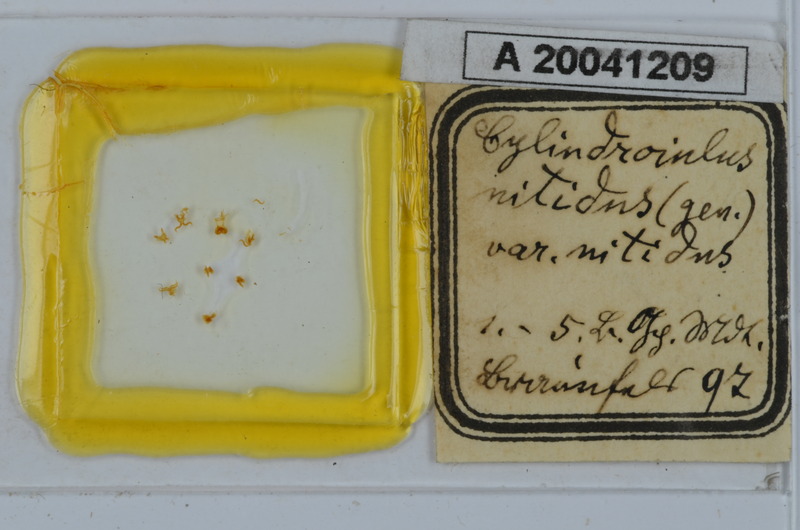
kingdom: Animalia
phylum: Arthropoda
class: Diplopoda
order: Julida
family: Julidae
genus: Allajulus
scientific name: Allajulus nitidus
